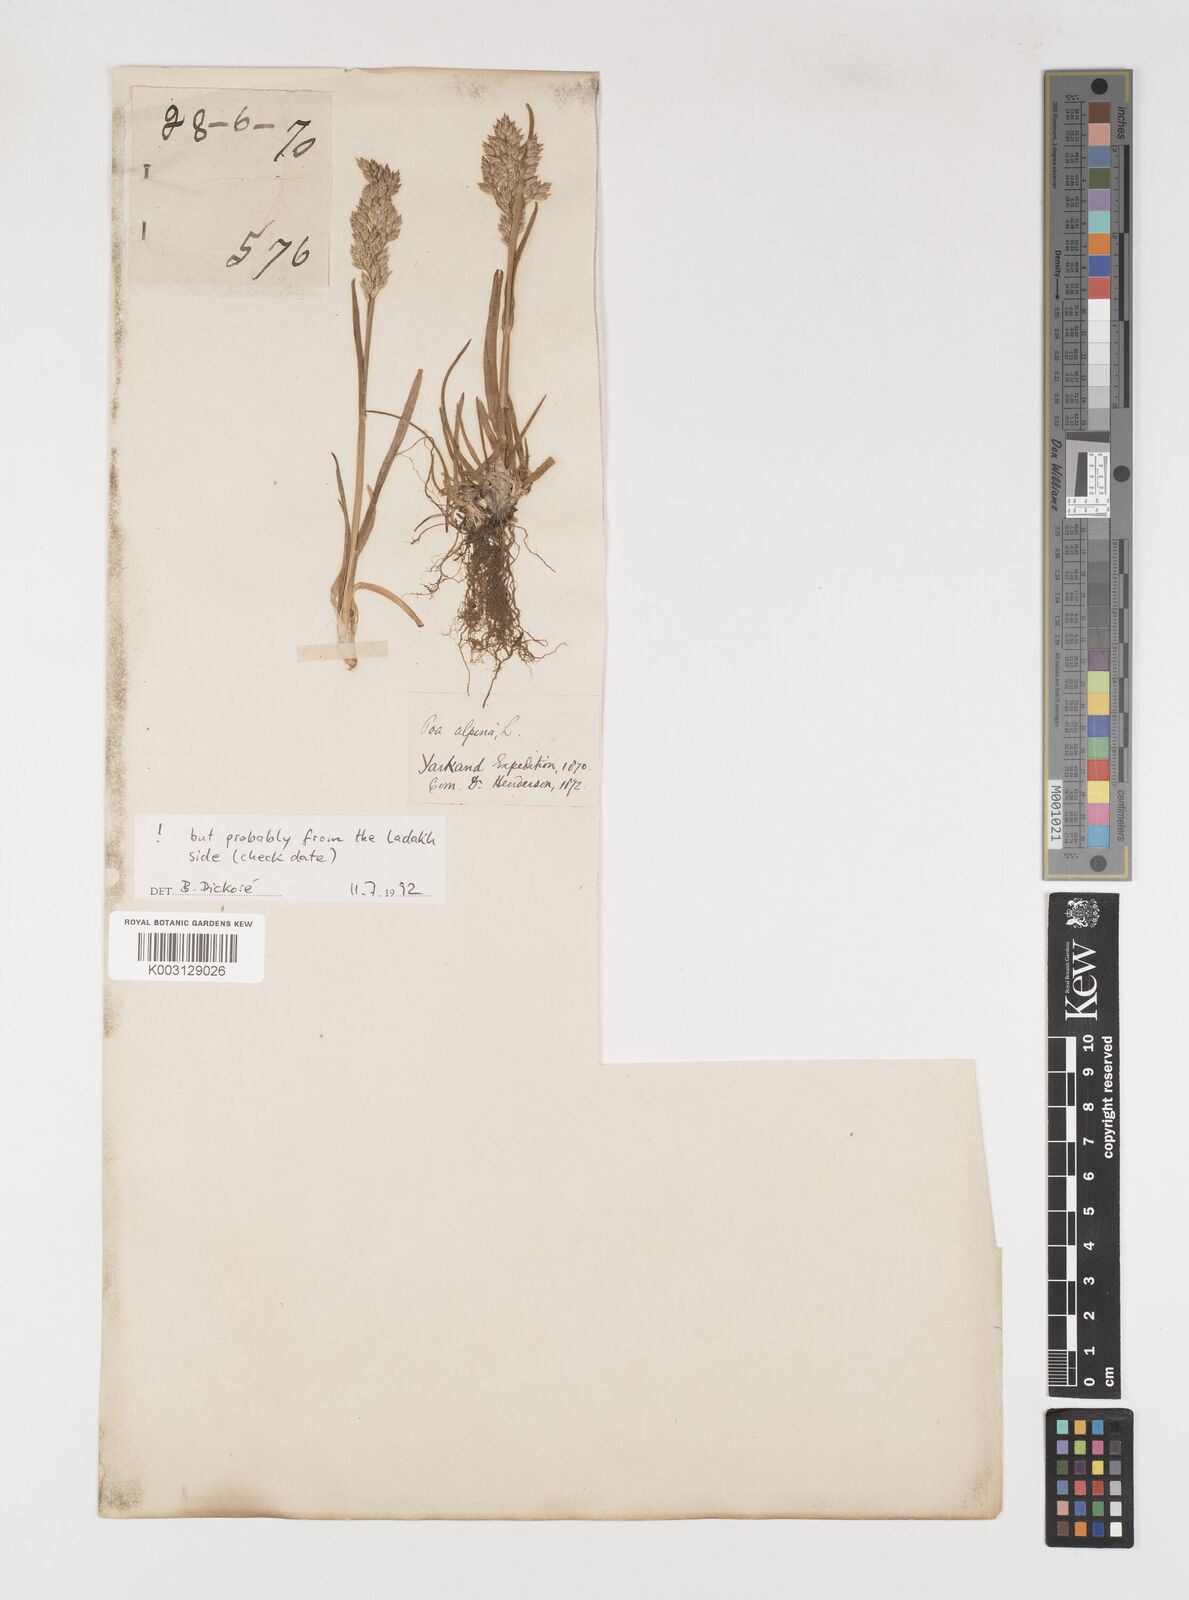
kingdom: Plantae
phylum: Tracheophyta
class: Liliopsida
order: Poales
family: Poaceae
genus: Poa
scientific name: Poa alpina
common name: Alpine bluegrass
